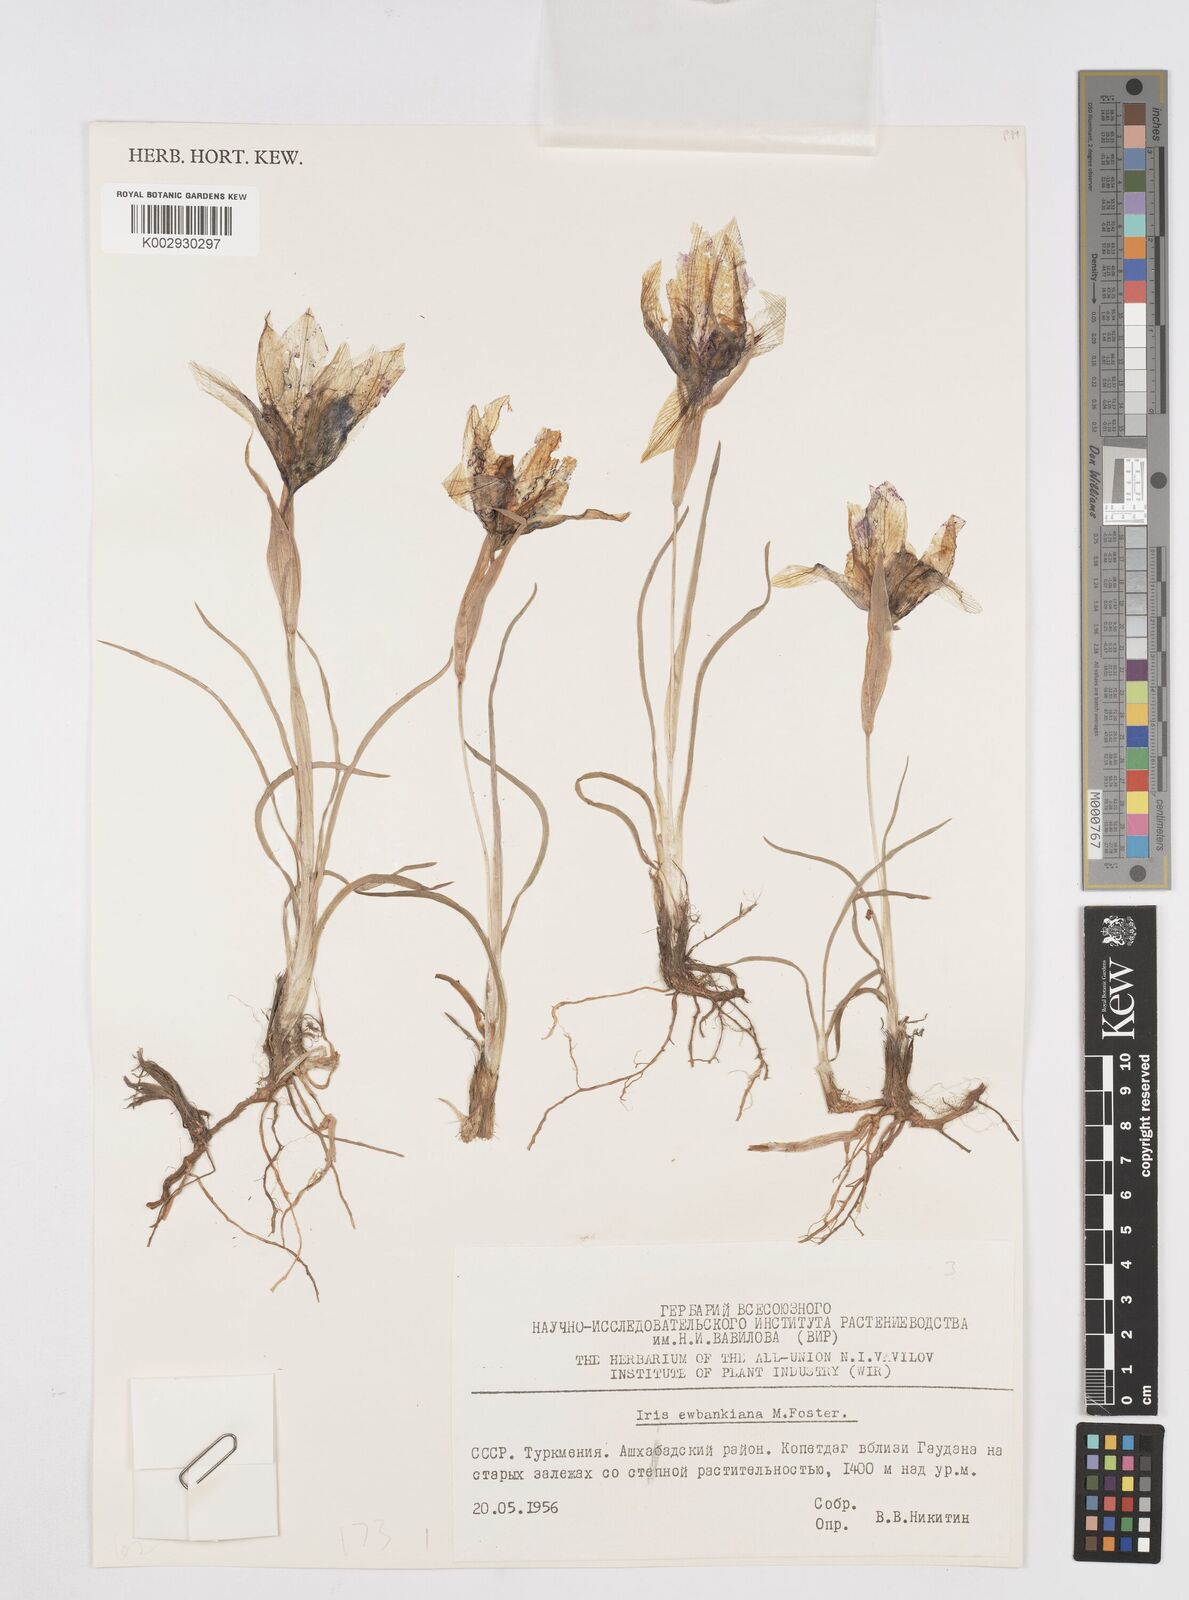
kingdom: Plantae
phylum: Tracheophyta
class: Liliopsida
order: Asparagales
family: Iridaceae
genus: Iris
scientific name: Iris longiscapa
